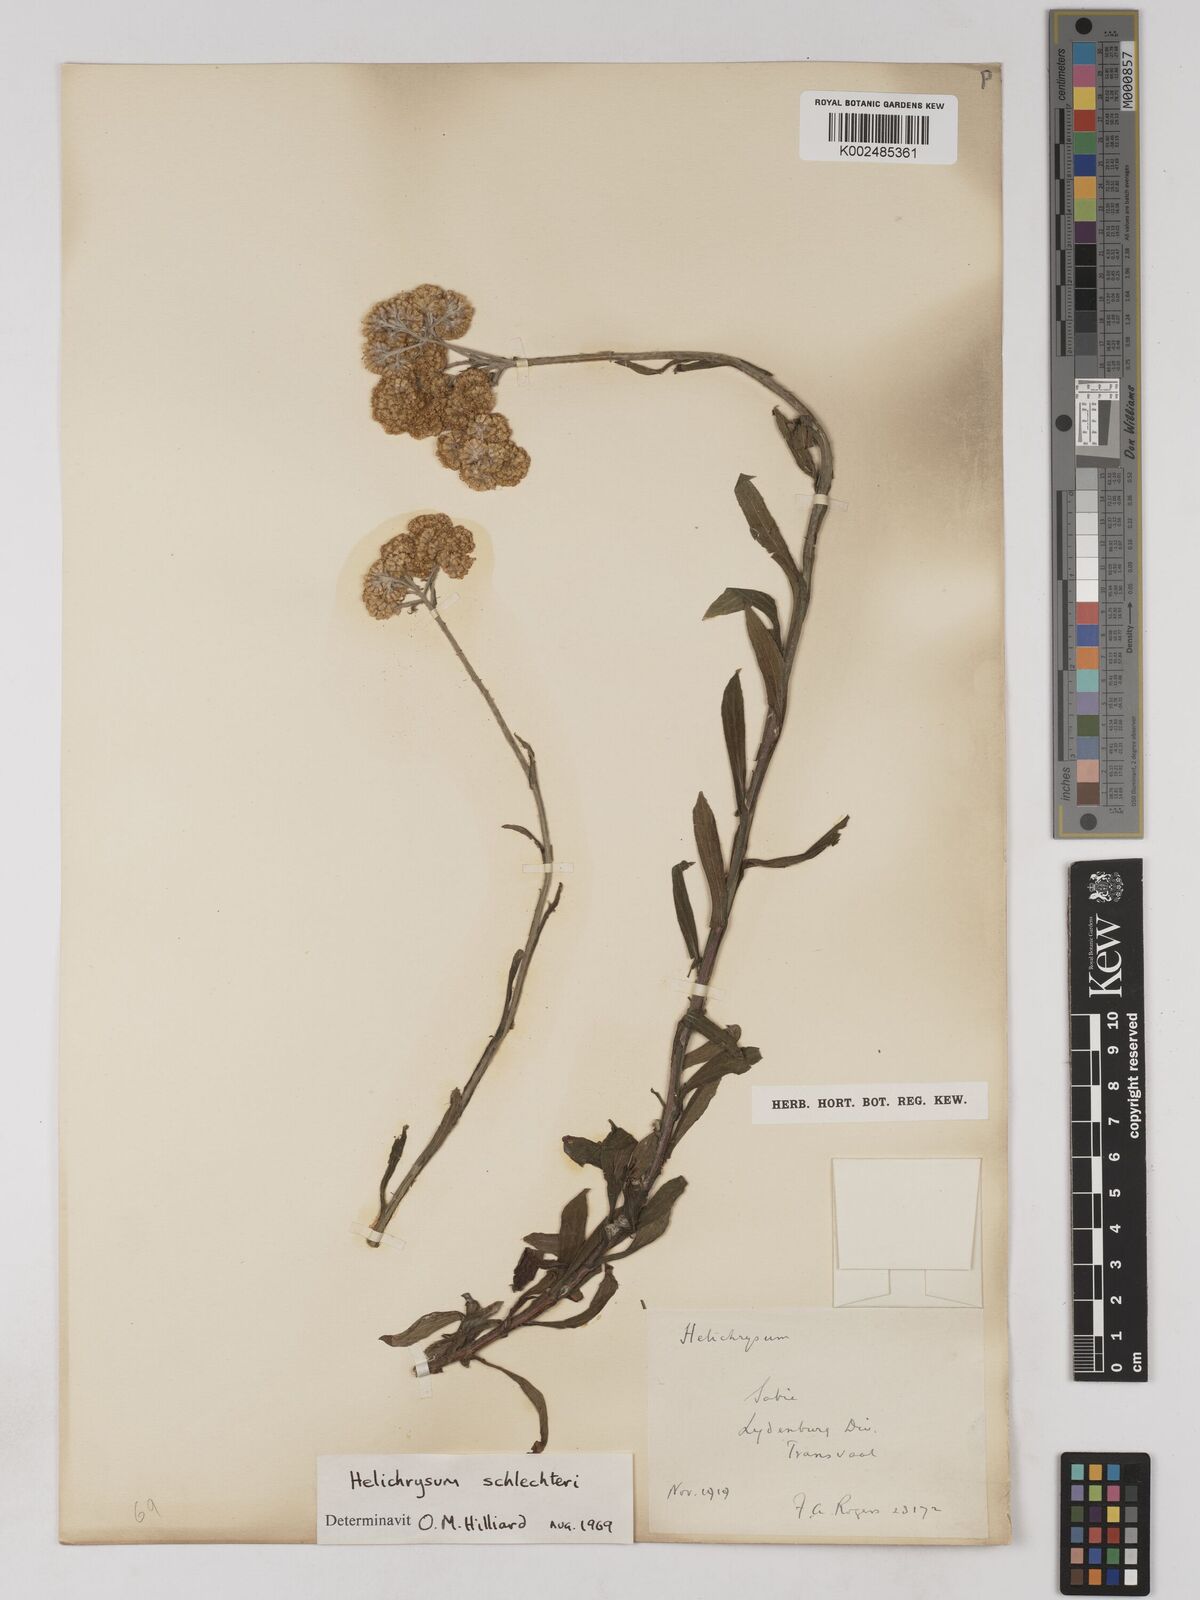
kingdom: Plantae
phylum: Tracheophyta
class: Magnoliopsida
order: Asterales
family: Asteraceae
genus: Helichrysum
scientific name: Helichrysum acutatum
